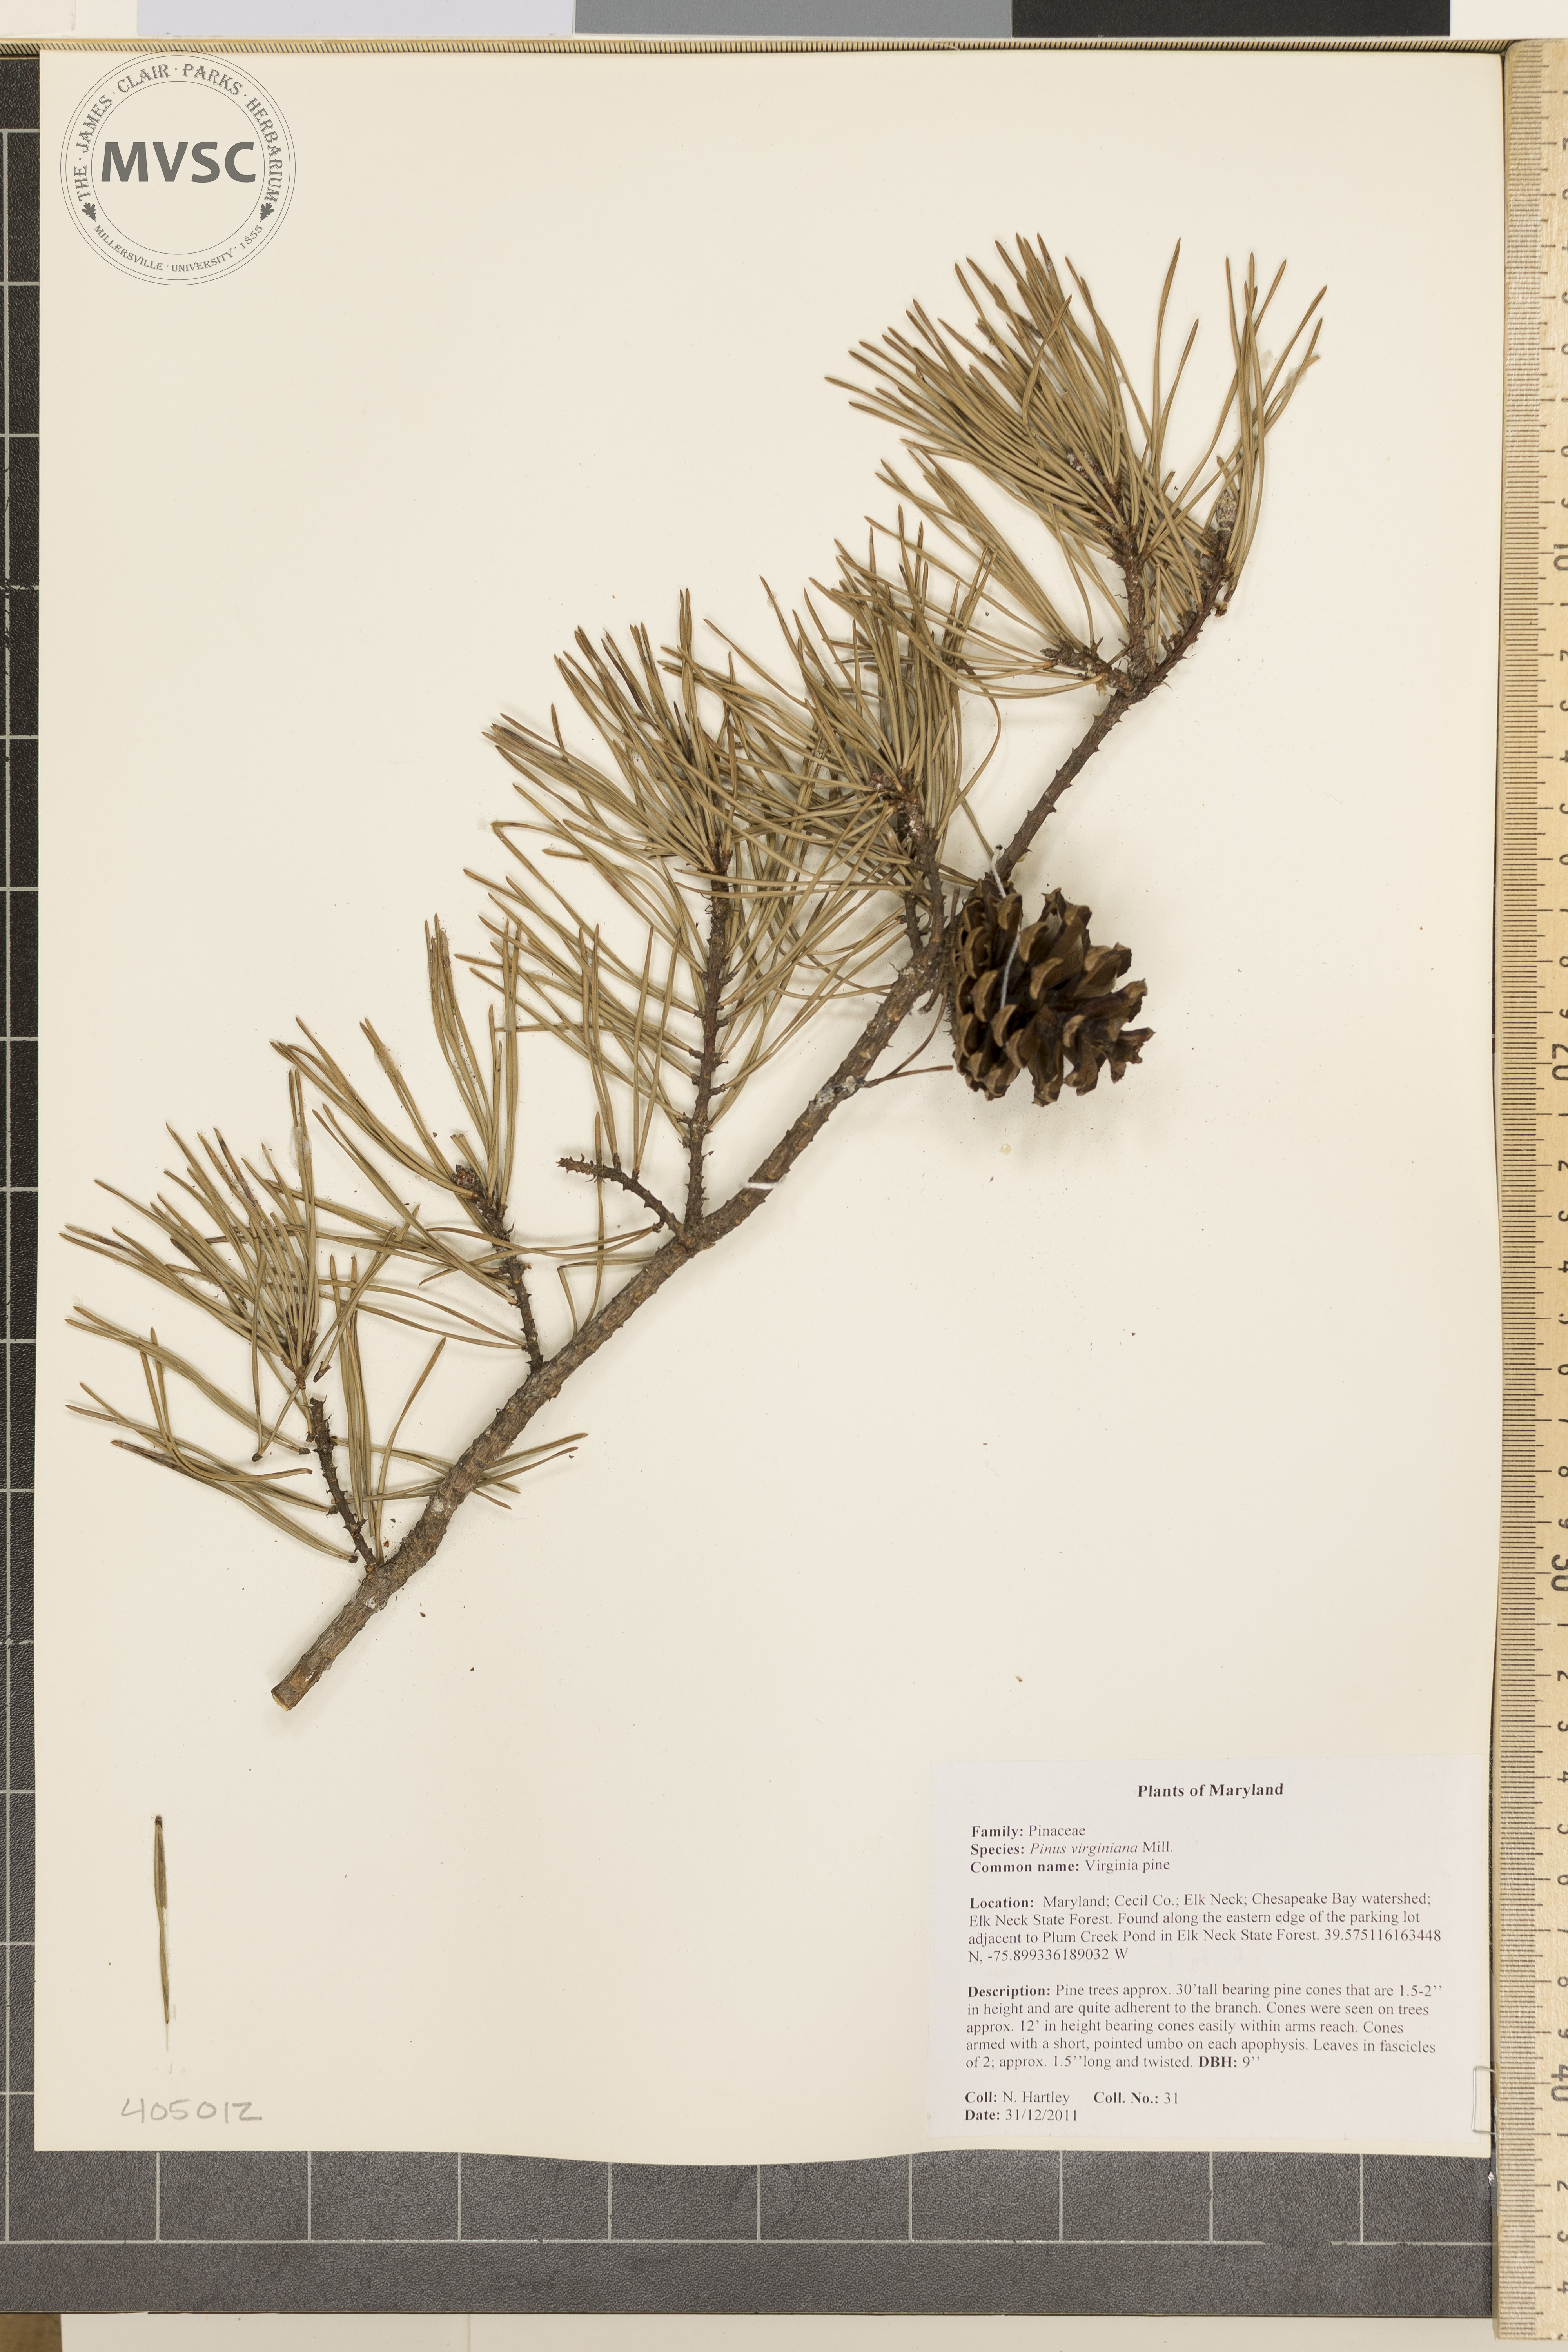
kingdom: Plantae
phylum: Tracheophyta
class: Pinopsida
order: Pinales
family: Pinaceae
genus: Pinus
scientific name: Pinus virginiana
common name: Virginia pine
